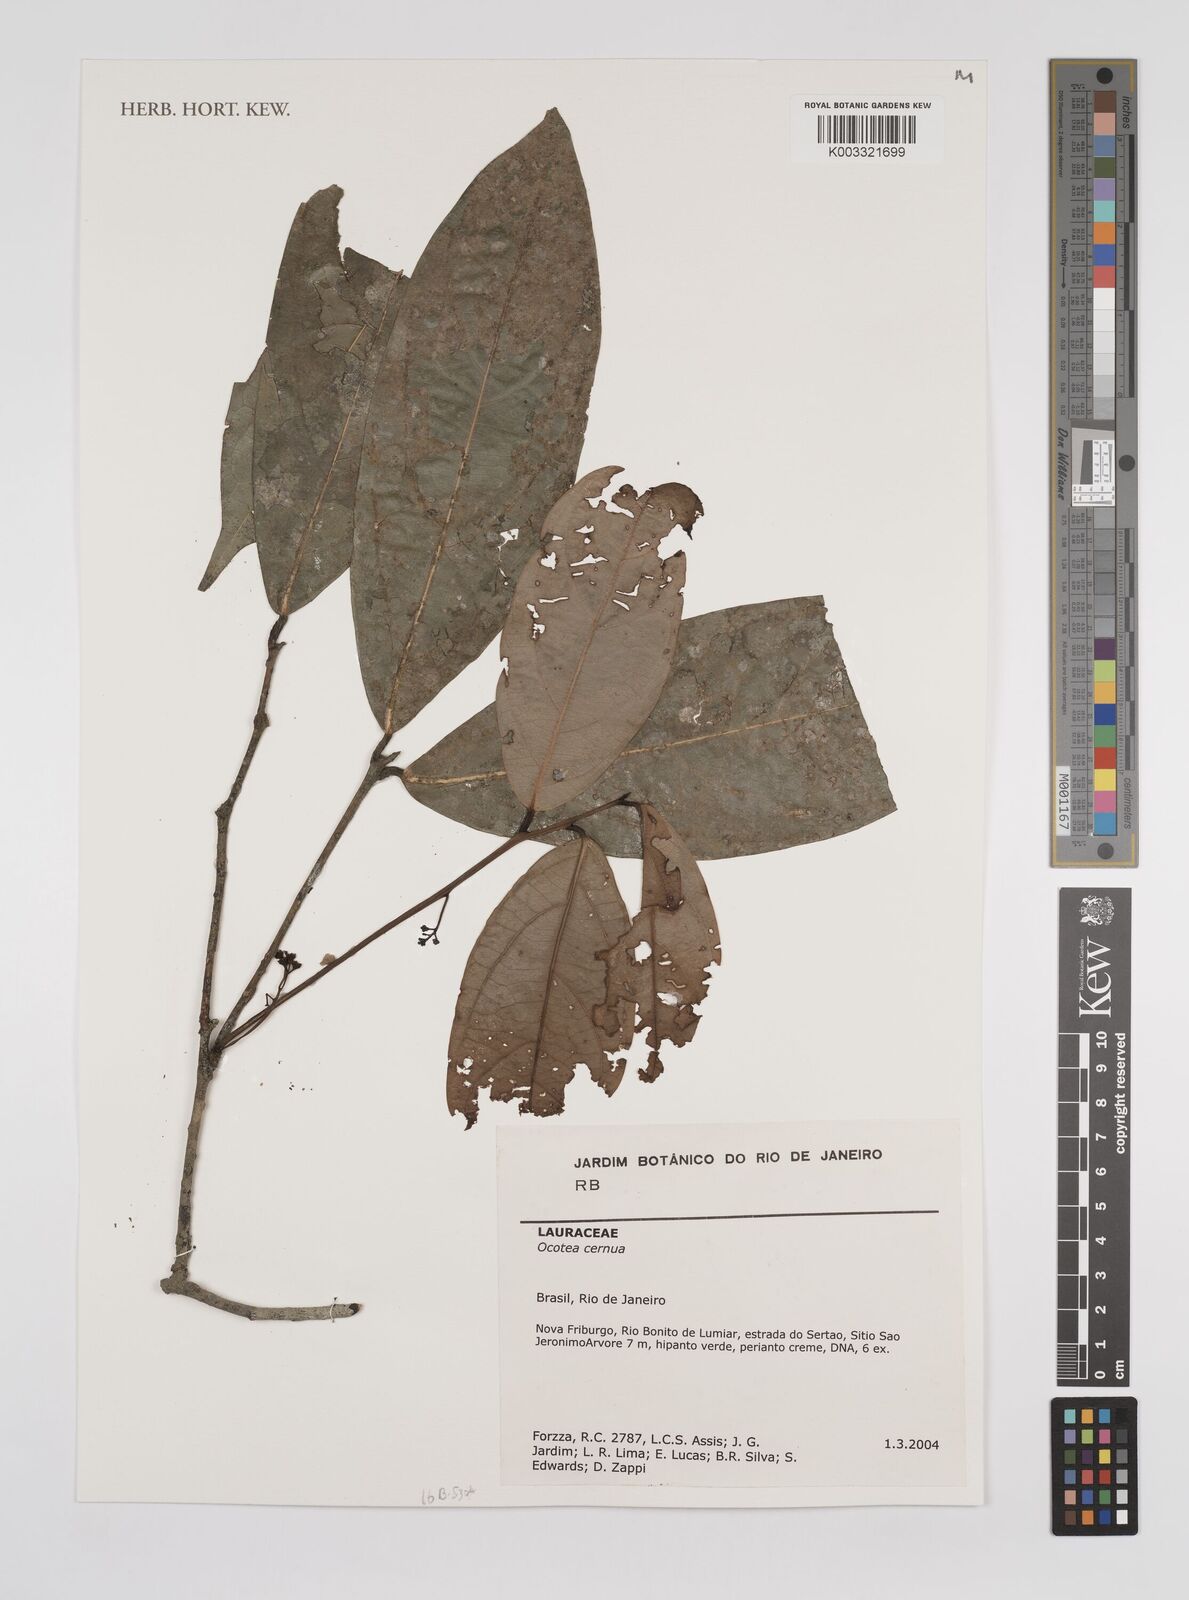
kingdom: Plantae
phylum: Tracheophyta
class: Magnoliopsida
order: Laurales
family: Lauraceae
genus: Ocotea
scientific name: Ocotea leptobotra
